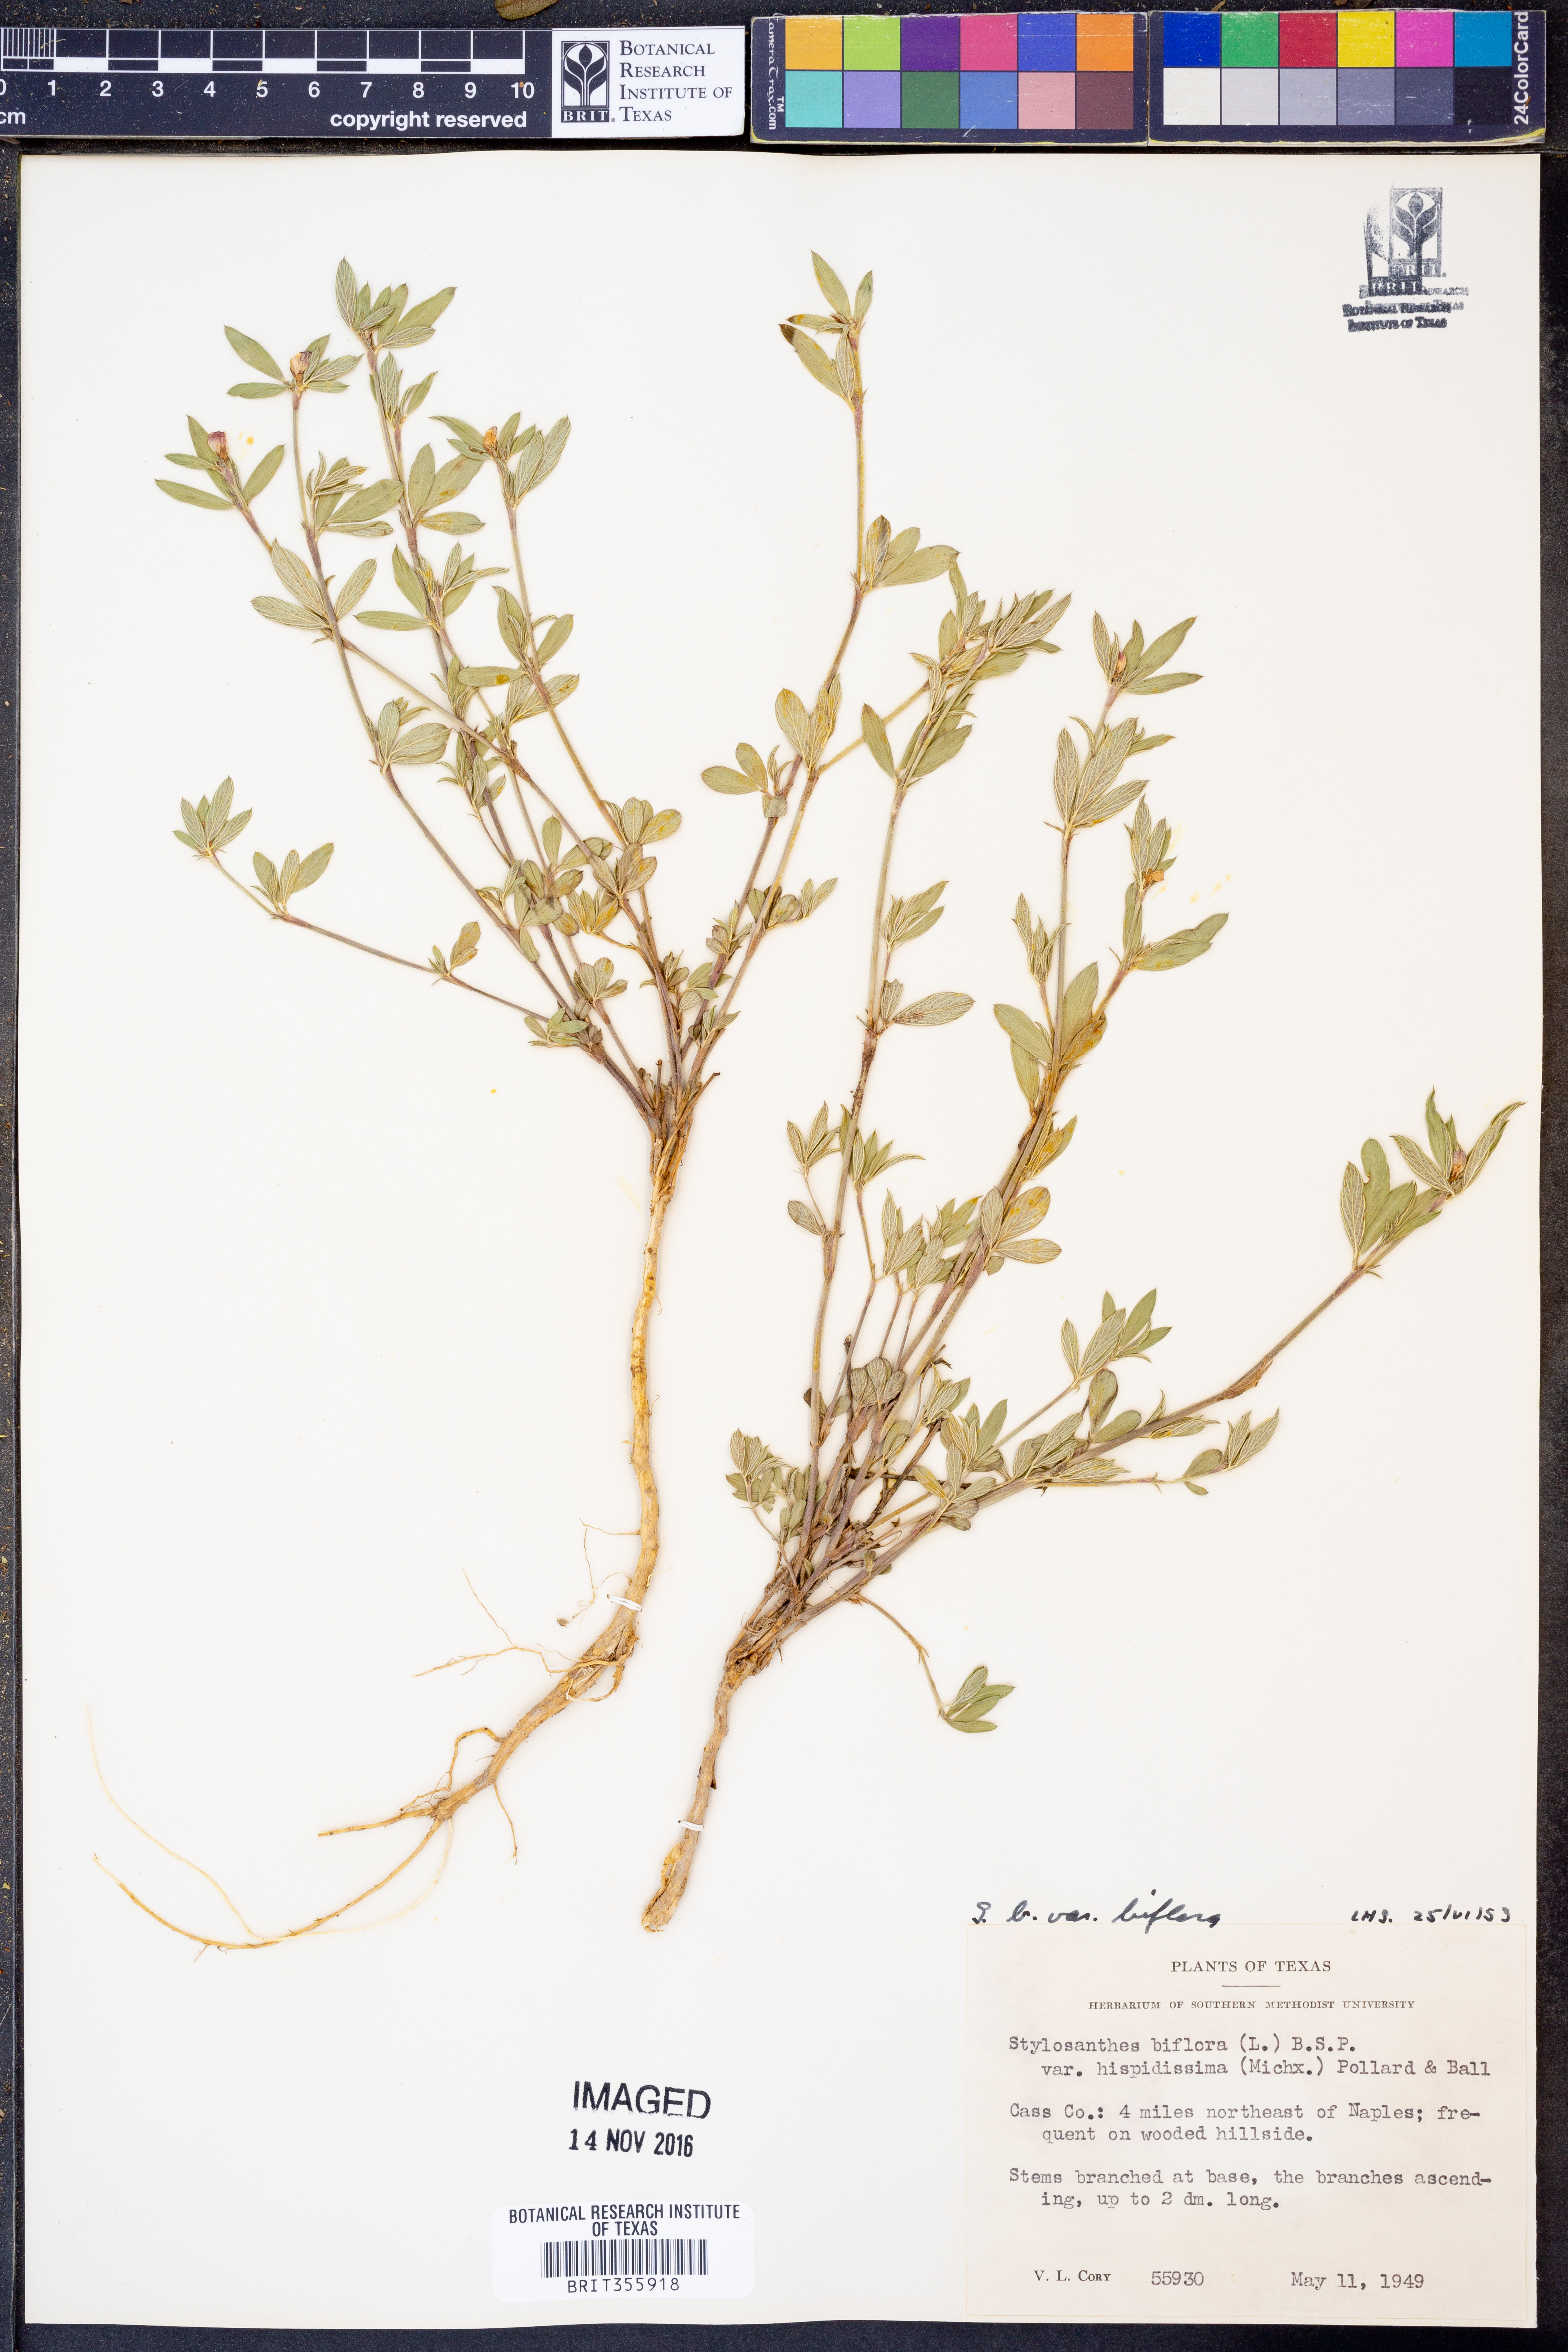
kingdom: Plantae
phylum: Tracheophyta
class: Magnoliopsida
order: Fabales
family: Fabaceae
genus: Stylosanthes
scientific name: Stylosanthes biflora
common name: Two-flower pencil-flower
